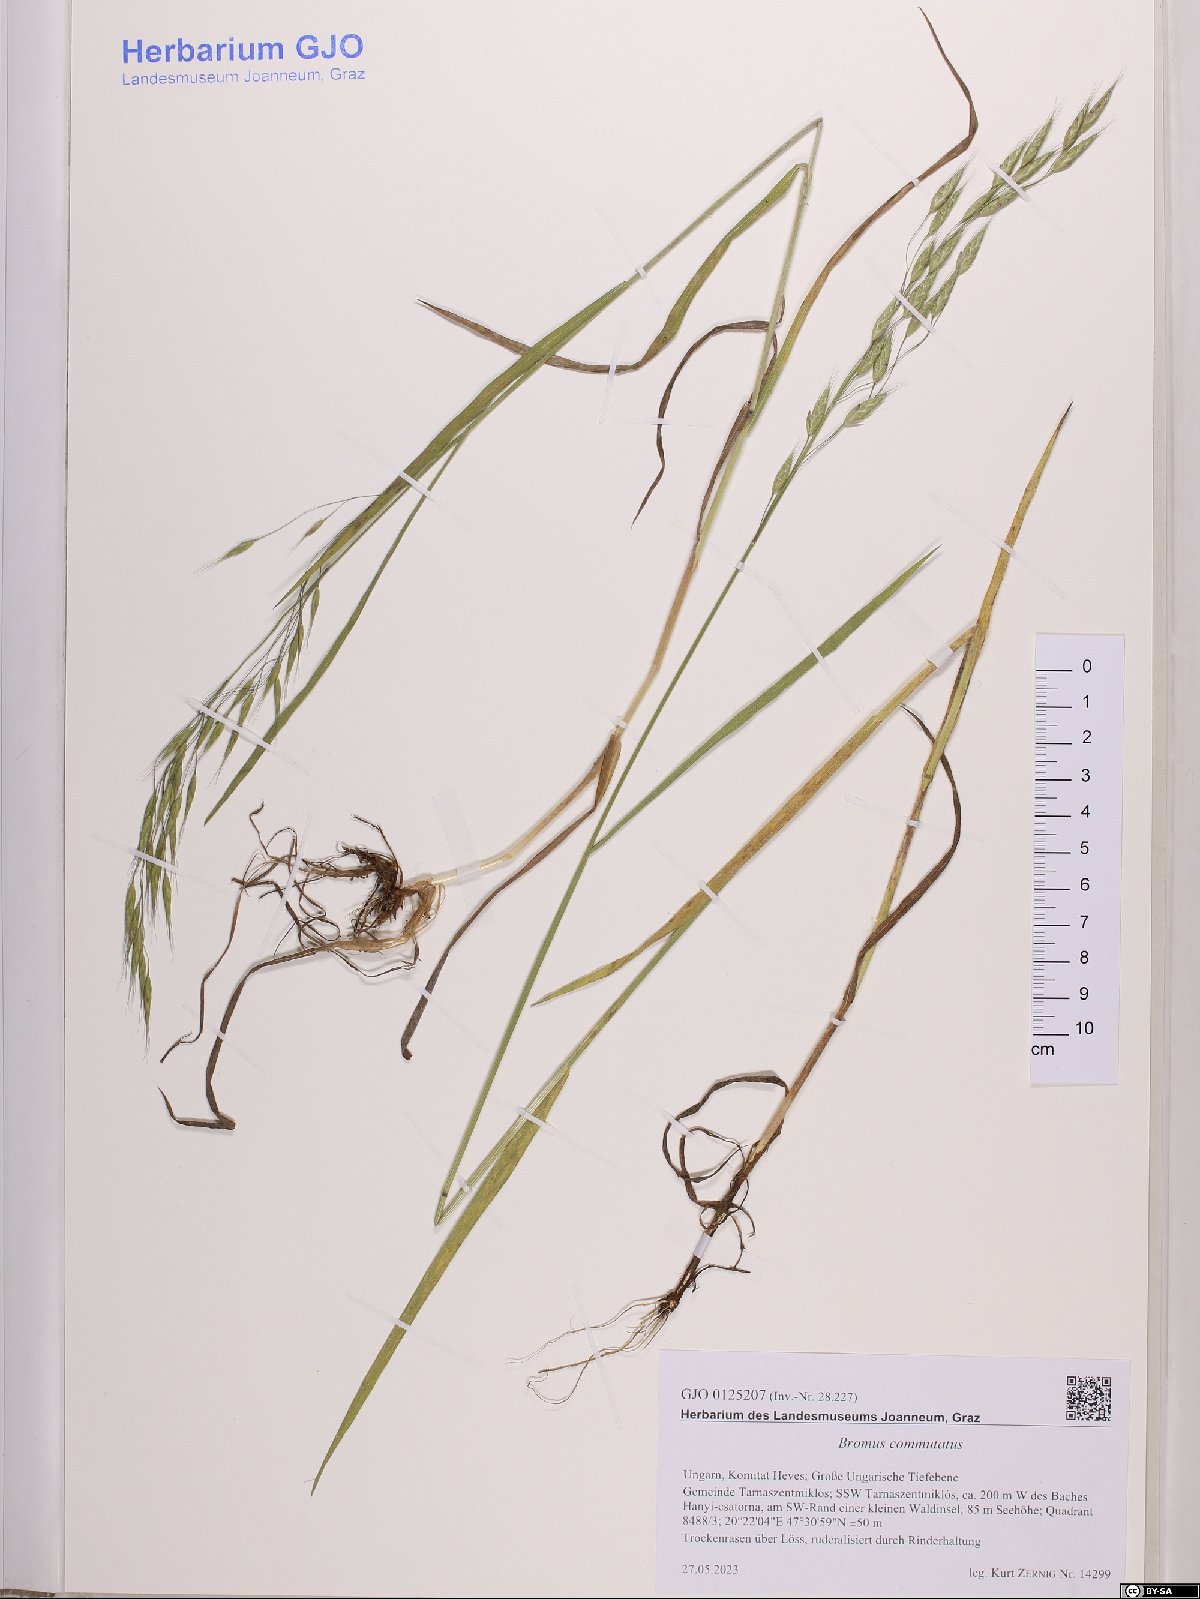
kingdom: Plantae
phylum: Tracheophyta
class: Liliopsida
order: Poales
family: Poaceae
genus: Bromus
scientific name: Bromus commutatus
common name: Meadow brome
